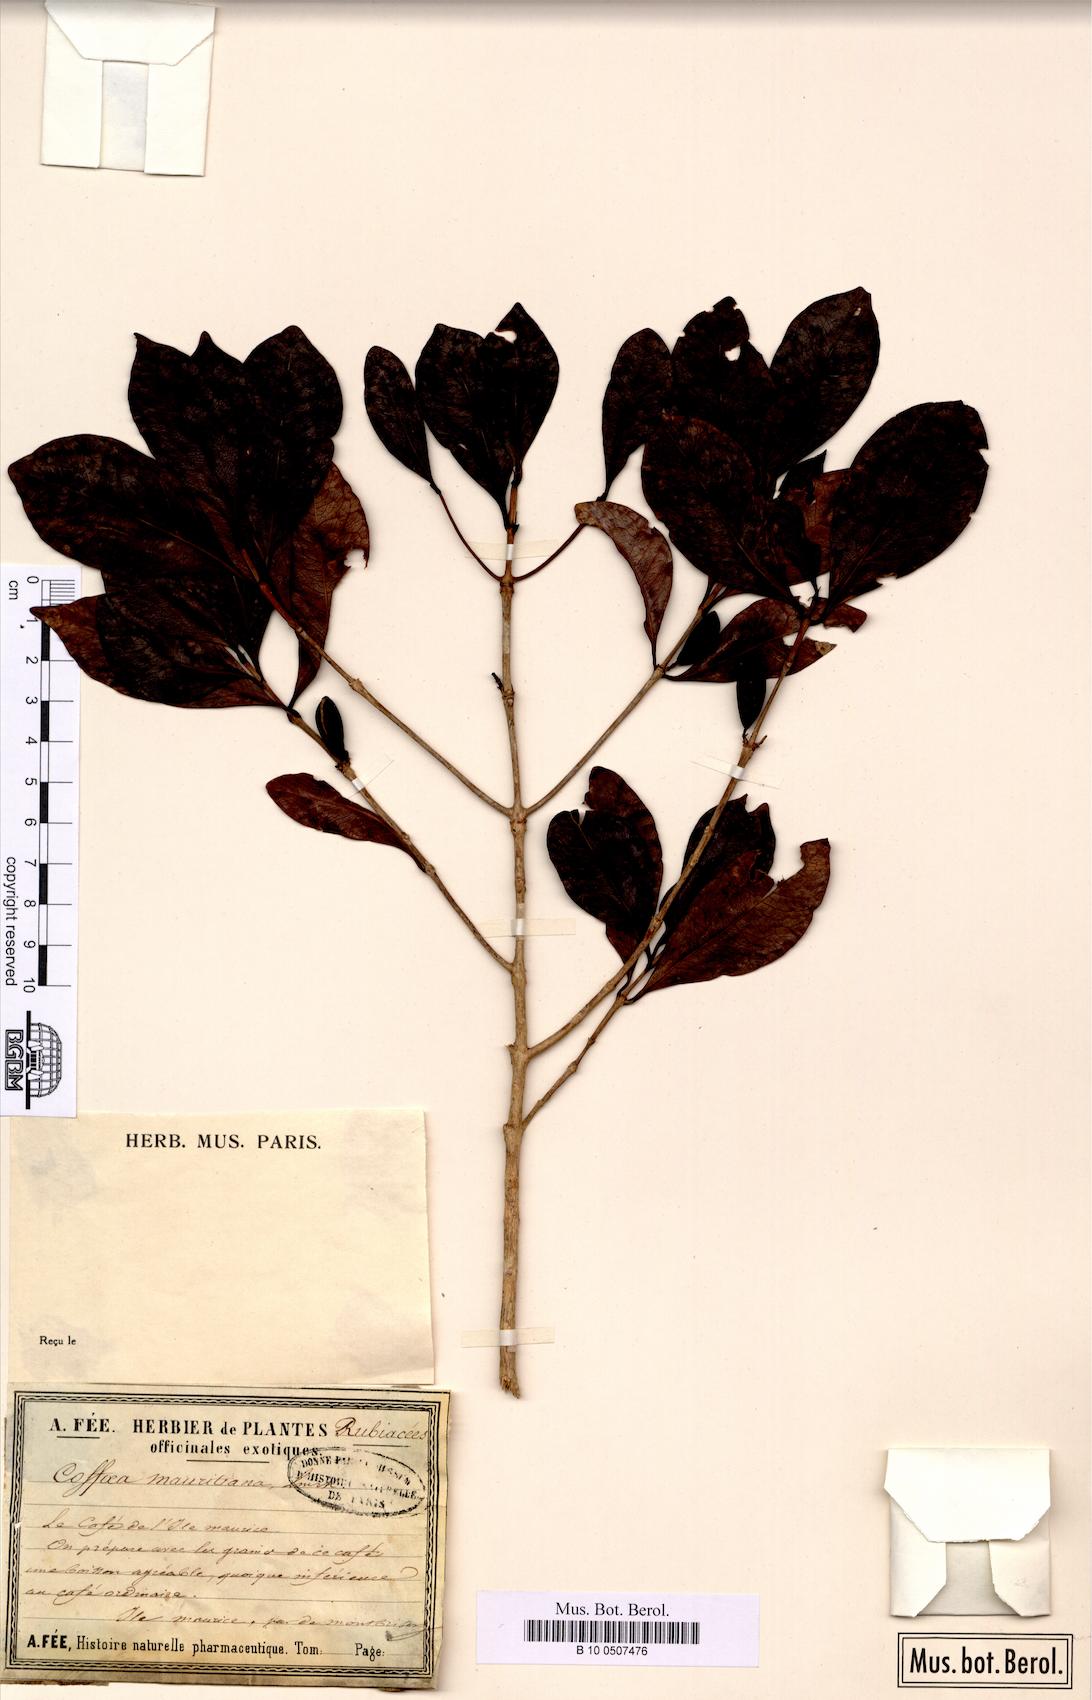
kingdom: Plantae
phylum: Tracheophyta
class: Magnoliopsida
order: Gentianales
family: Rubiaceae
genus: Coffea
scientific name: Coffea mauritiana
